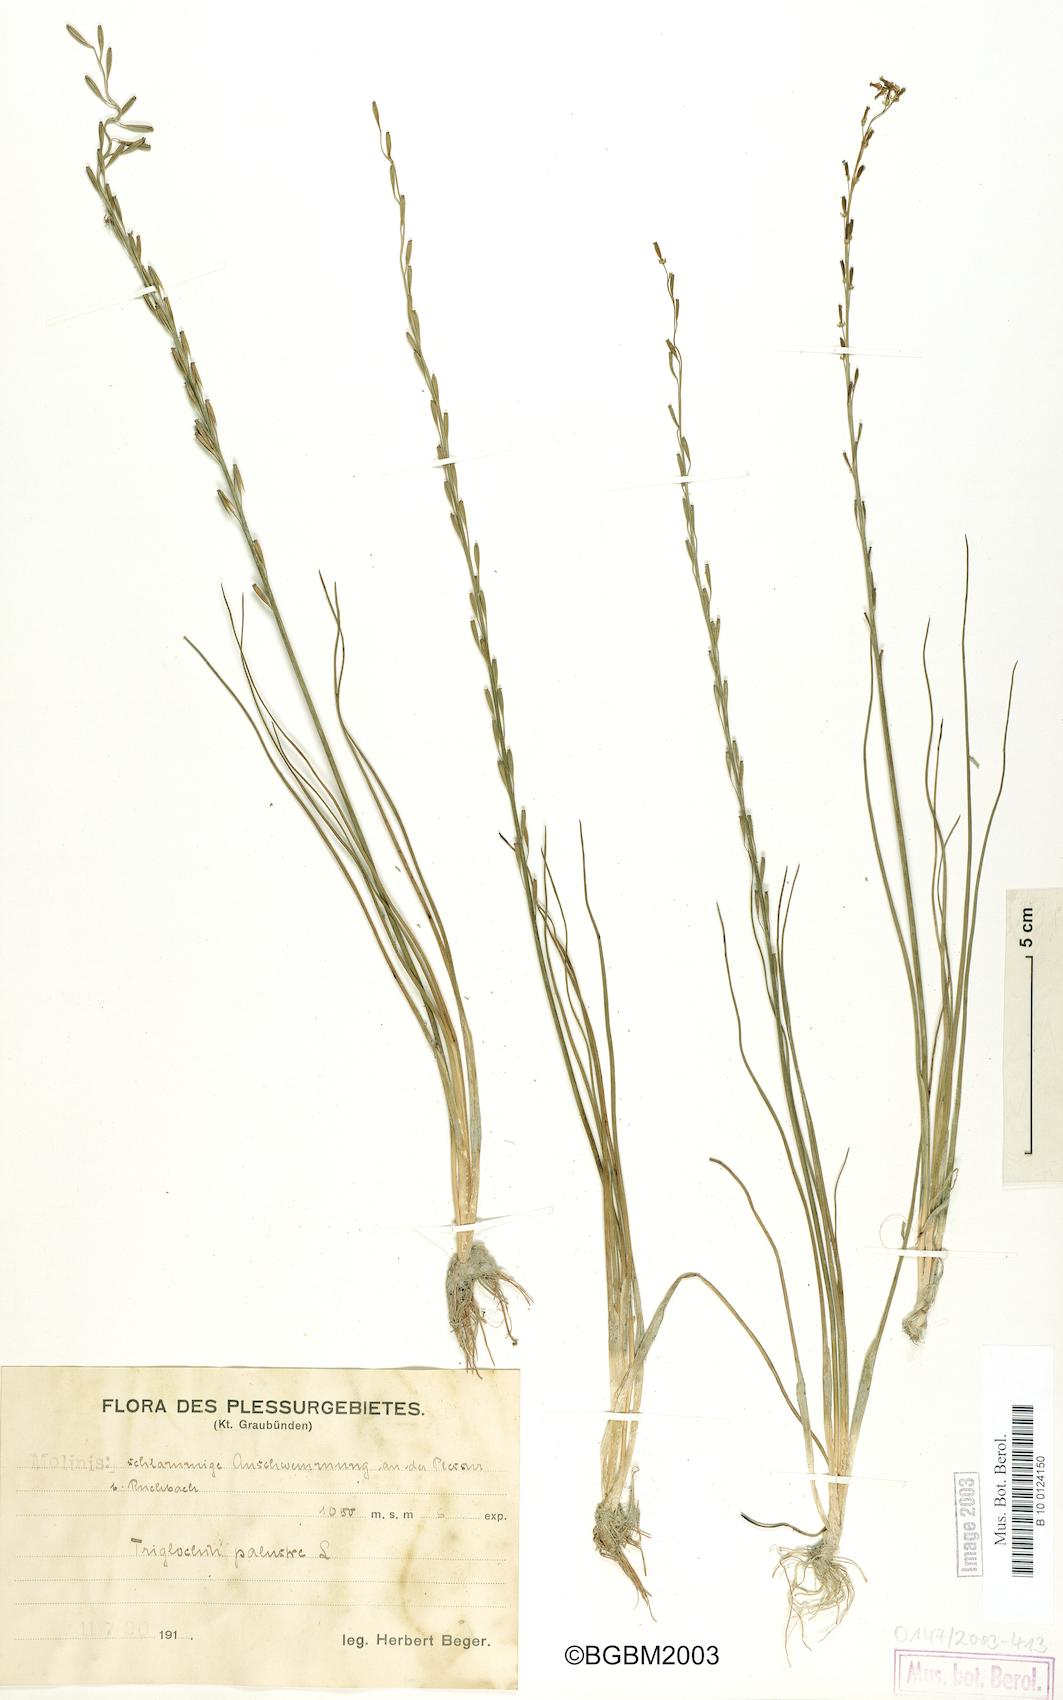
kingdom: Plantae
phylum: Tracheophyta
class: Liliopsida
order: Alismatales
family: Juncaginaceae
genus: Triglochin
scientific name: Triglochin palustris
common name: Marsh arrowgrass
